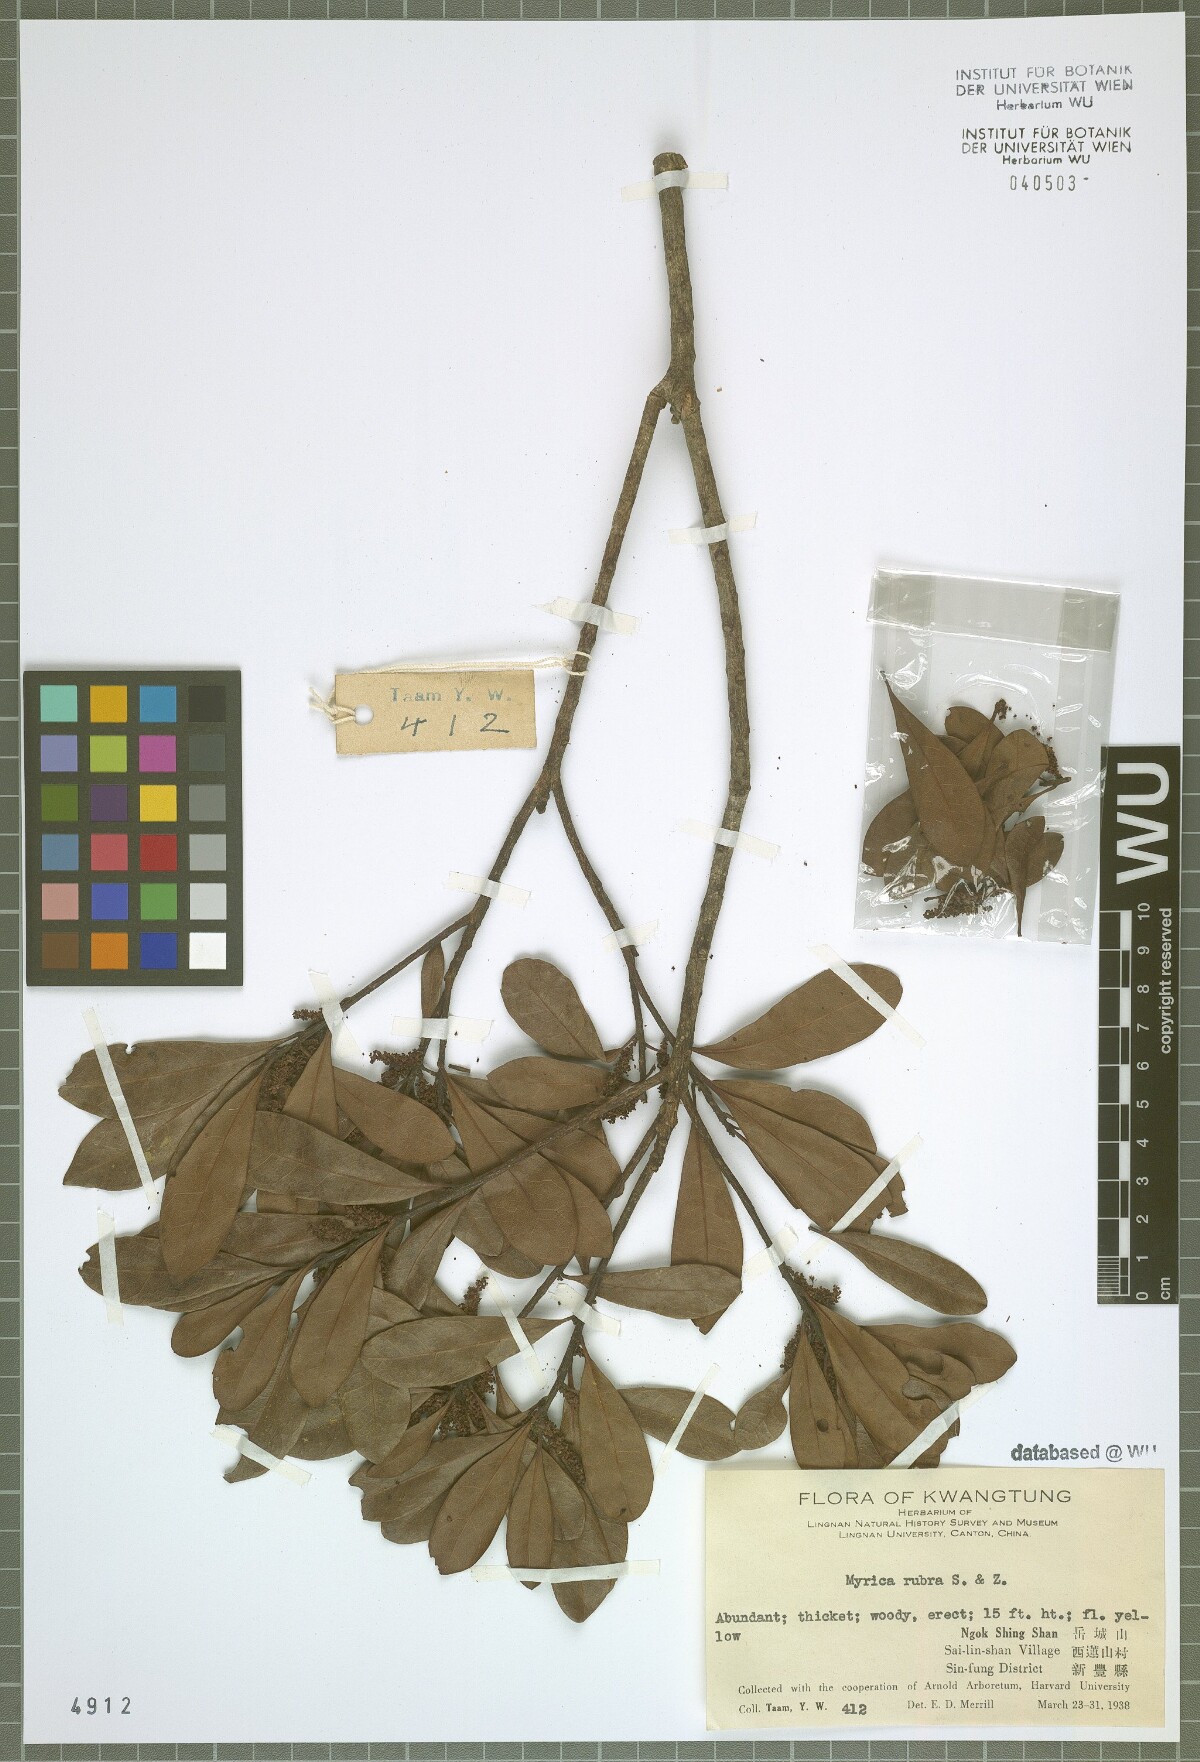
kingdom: Plantae
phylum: Tracheophyta
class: Magnoliopsida
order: Fagales
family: Myricaceae
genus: Morella
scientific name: Morella rubra
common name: Red bayberry
